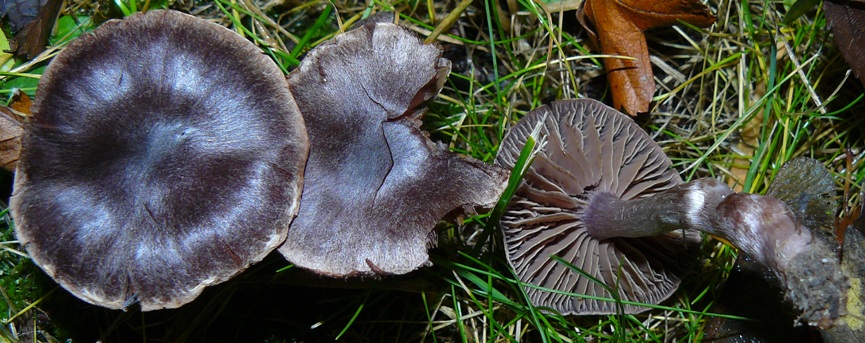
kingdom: Fungi
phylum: Basidiomycota
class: Agaricomycetes
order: Agaricales
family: Cortinariaceae
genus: Cortinarius
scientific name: Cortinarius
